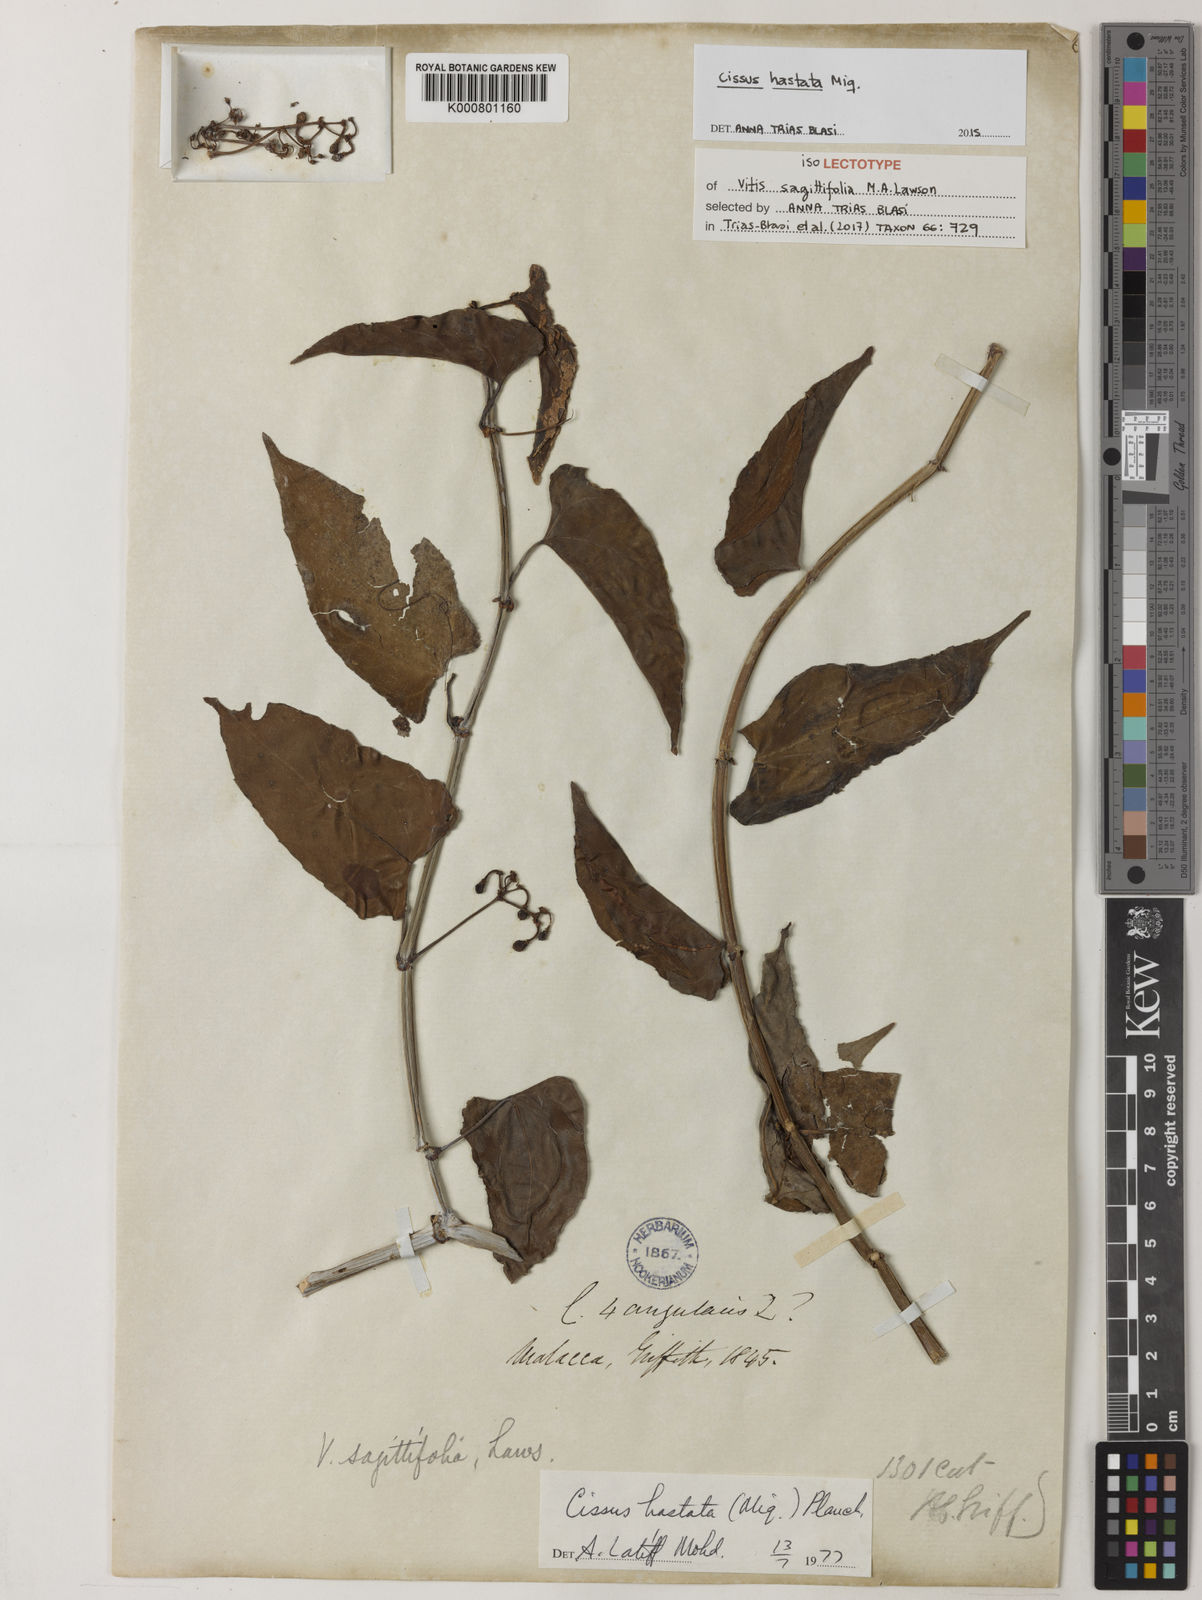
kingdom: Plantae
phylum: Tracheophyta
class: Magnoliopsida
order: Vitales
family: Vitaceae
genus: Cissus
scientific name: Cissus hastata
